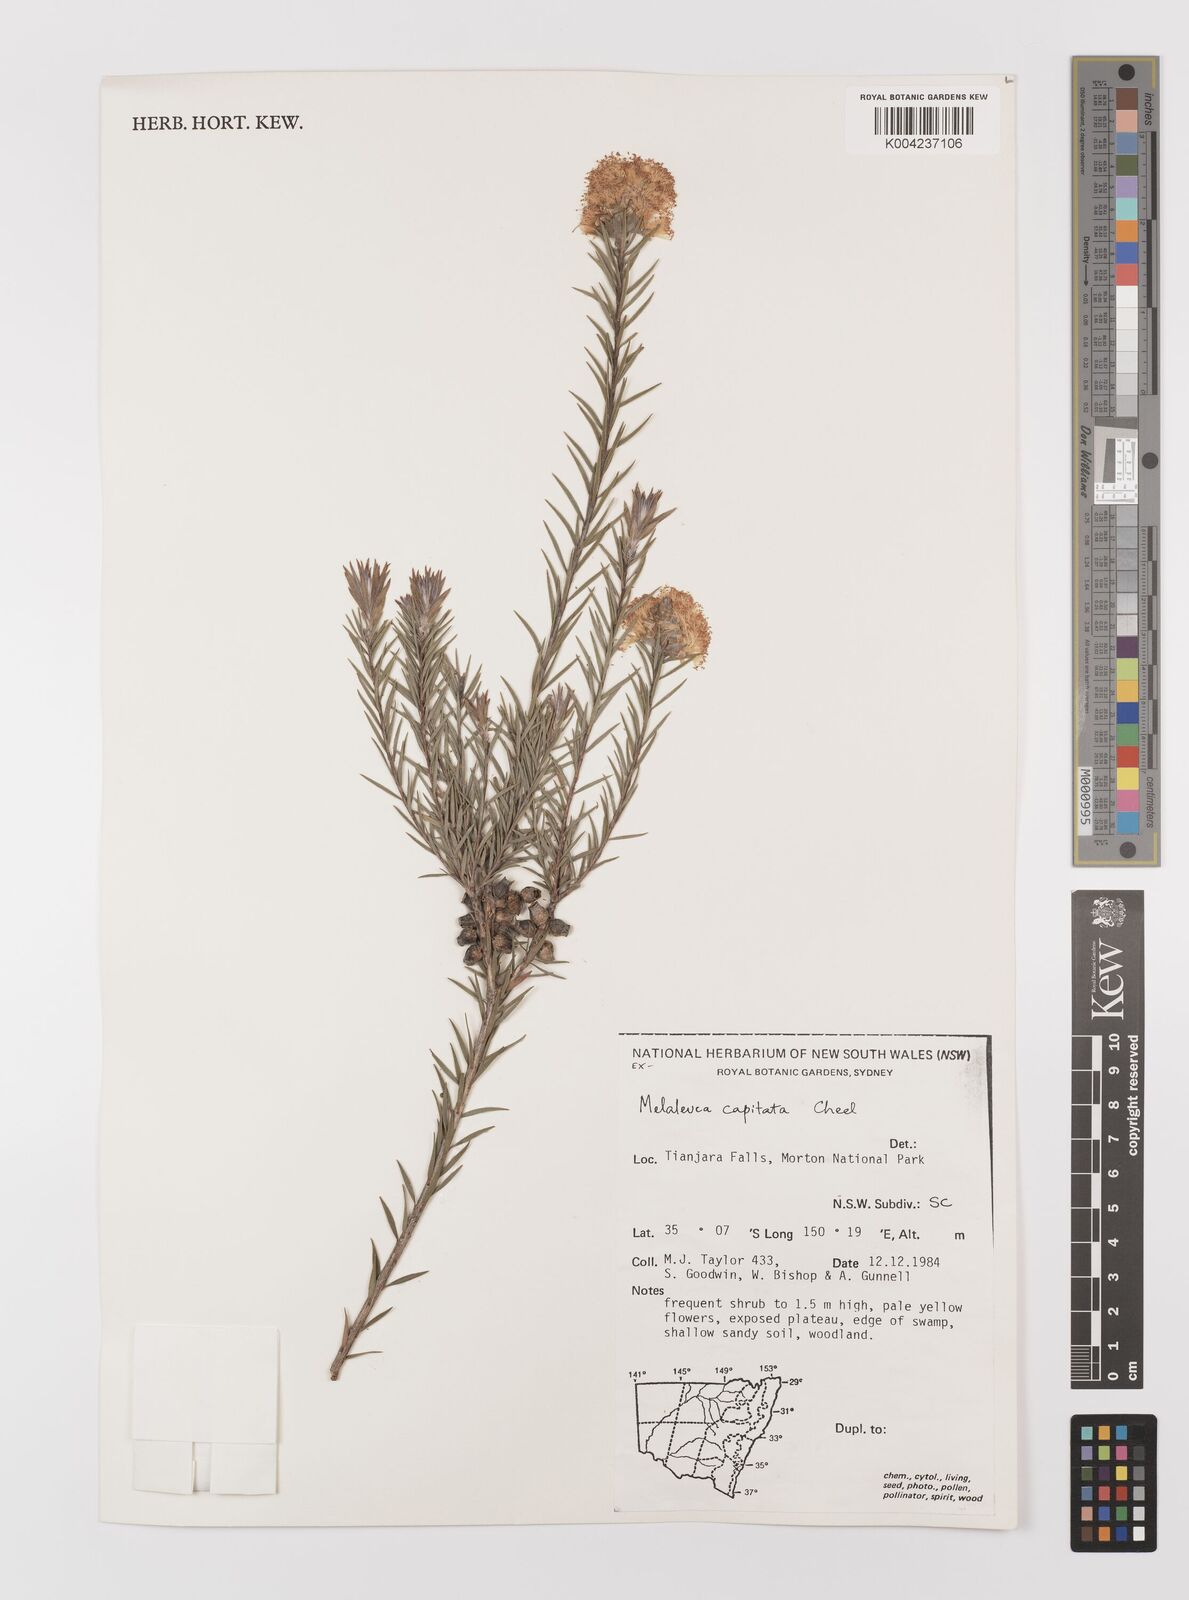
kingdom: Plantae
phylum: Tracheophyta
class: Magnoliopsida
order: Myrtales
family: Myrtaceae
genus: Melaleuca
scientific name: Melaleuca capitata
